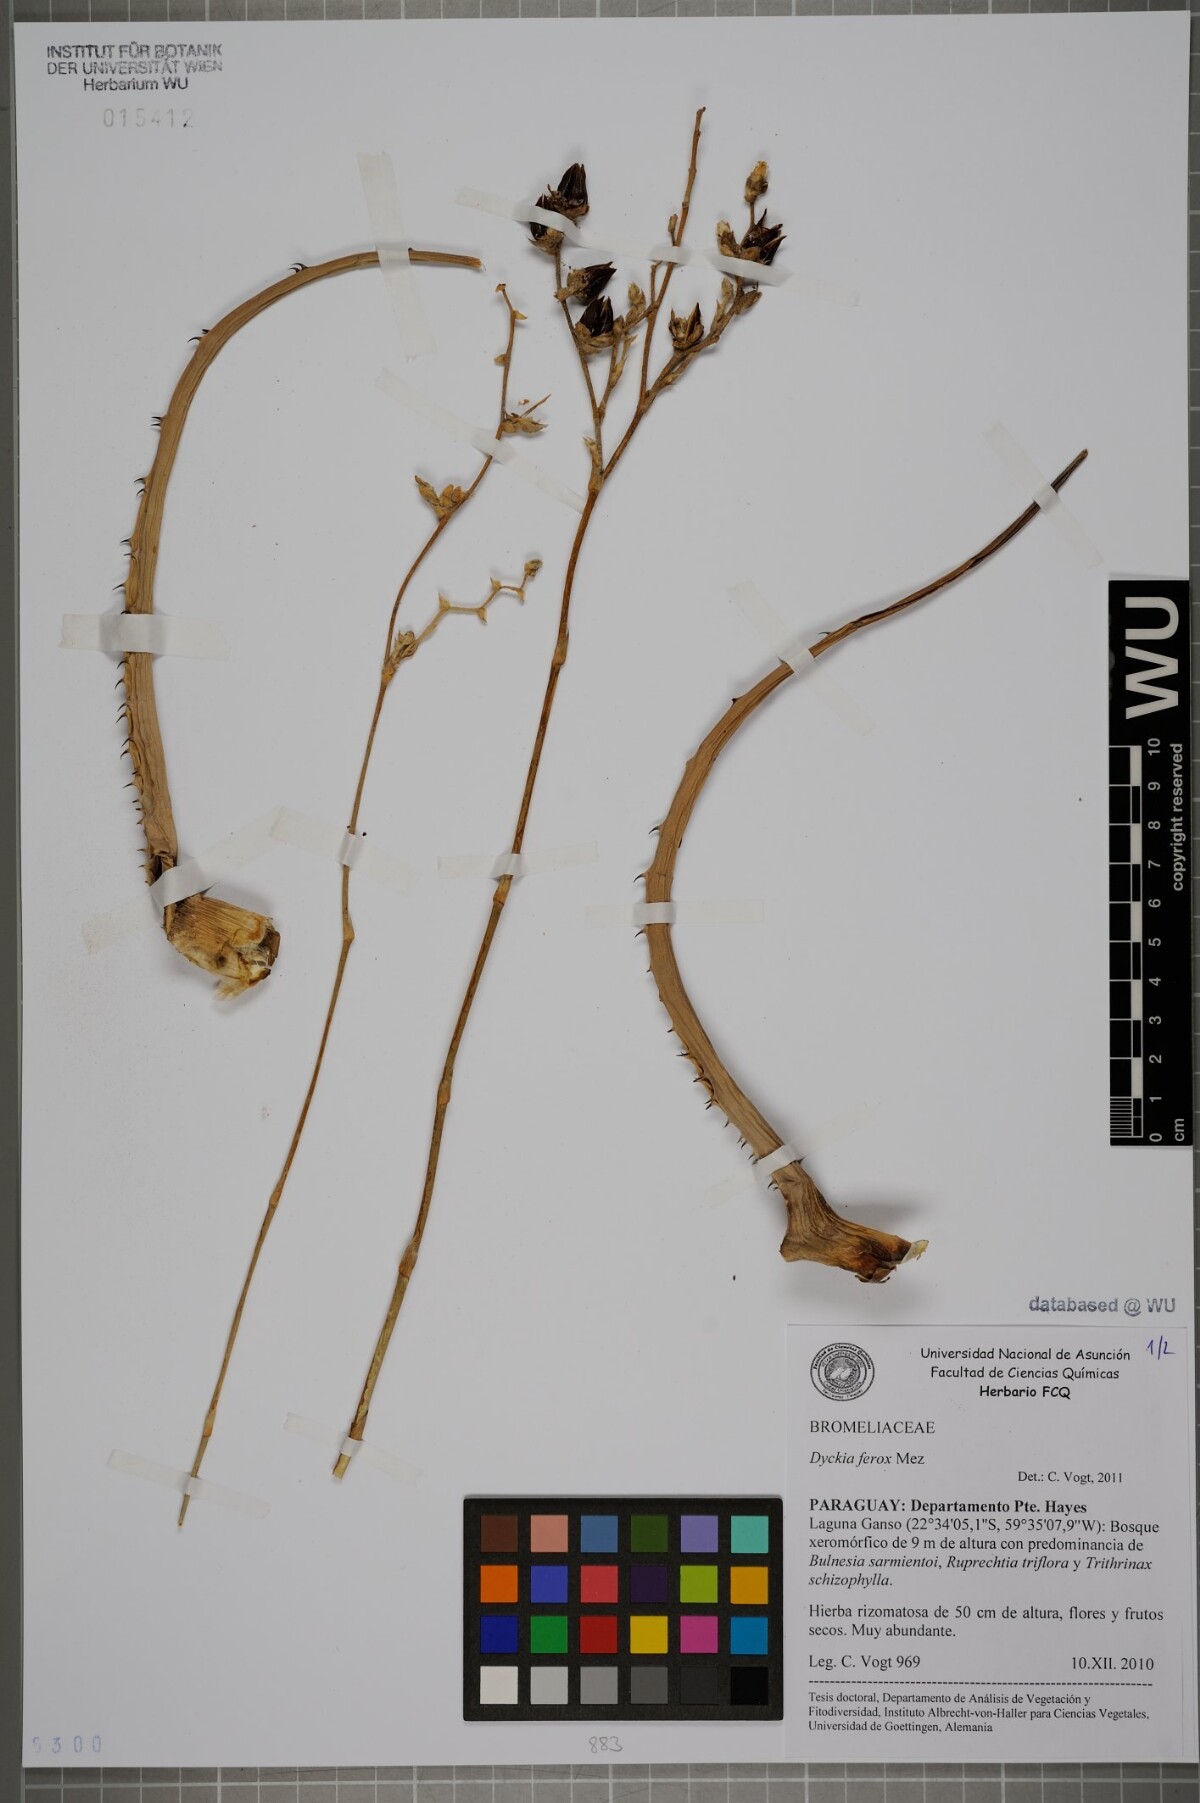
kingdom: Plantae
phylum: Tracheophyta
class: Liliopsida
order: Poales
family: Bromeliaceae
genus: Dyckia
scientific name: Dyckia ferox
